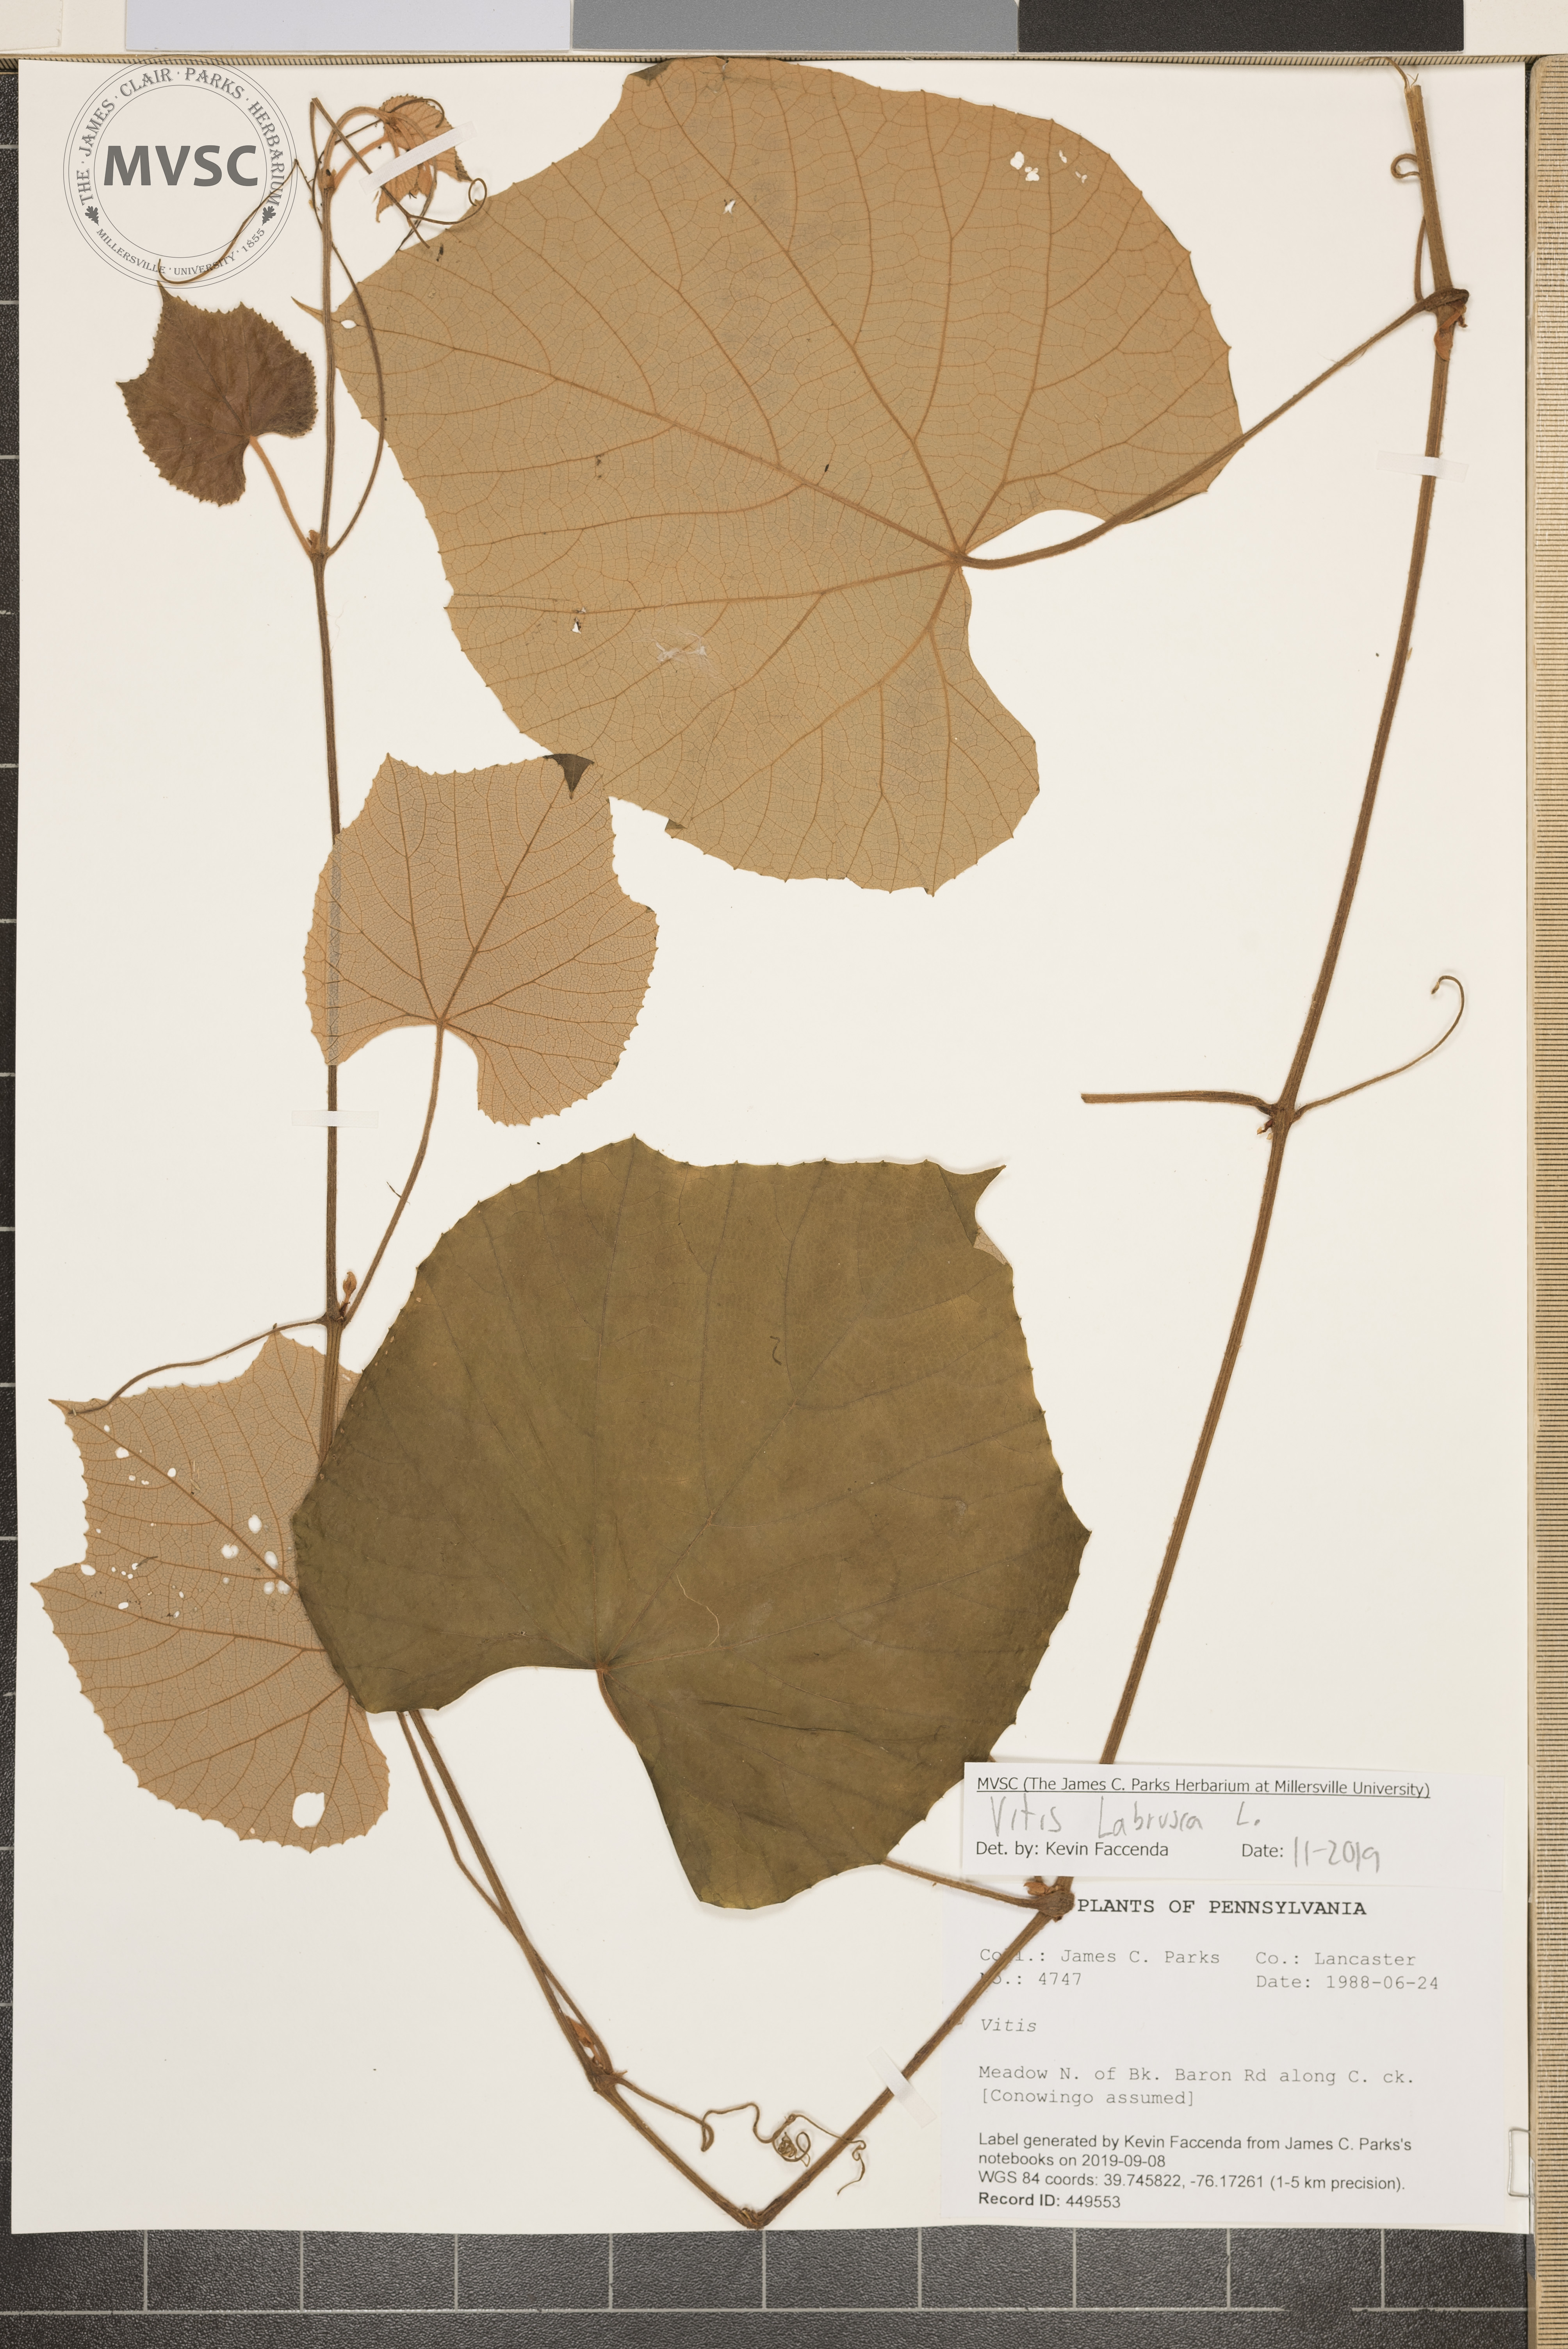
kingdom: Plantae
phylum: Tracheophyta
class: Magnoliopsida
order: Vitales
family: Vitaceae
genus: Vitis
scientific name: Vitis labrusca
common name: Concord grape
